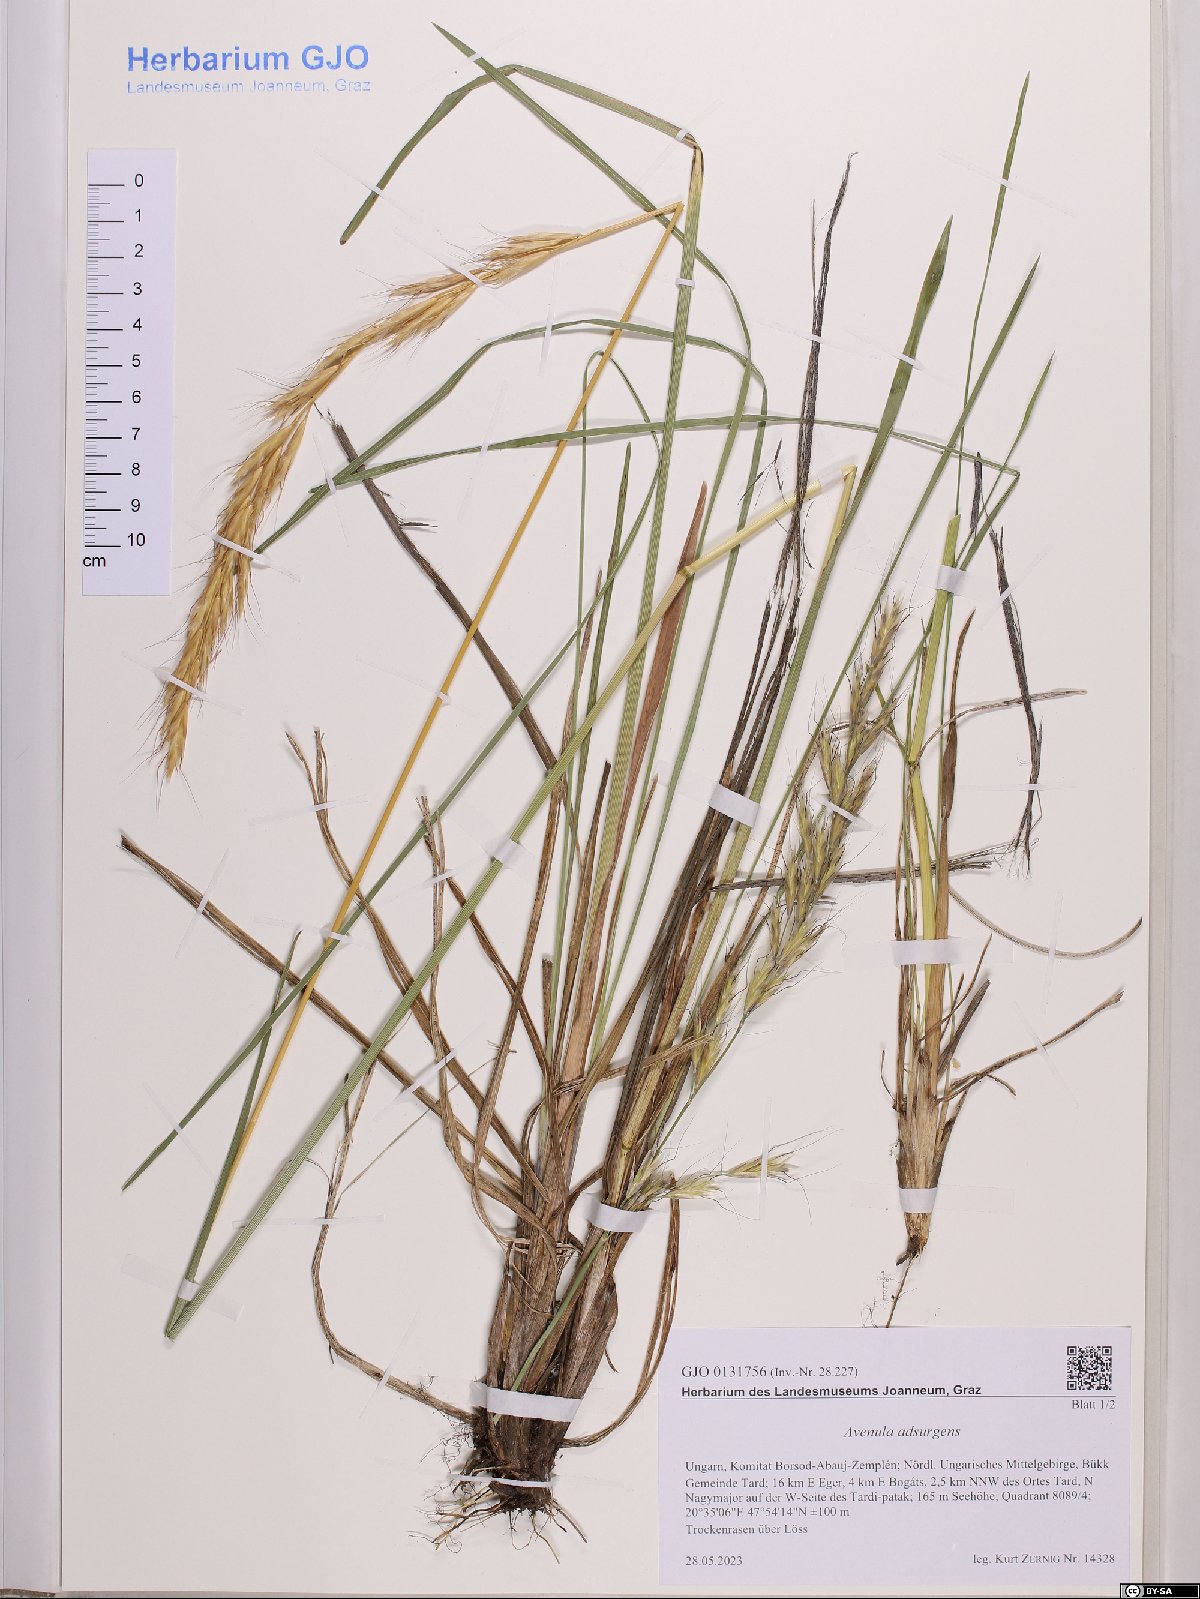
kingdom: Plantae
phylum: Tracheophyta
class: Liliopsida
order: Poales
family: Poaceae
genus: Helictochloa
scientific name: Helictochloa praeusta
